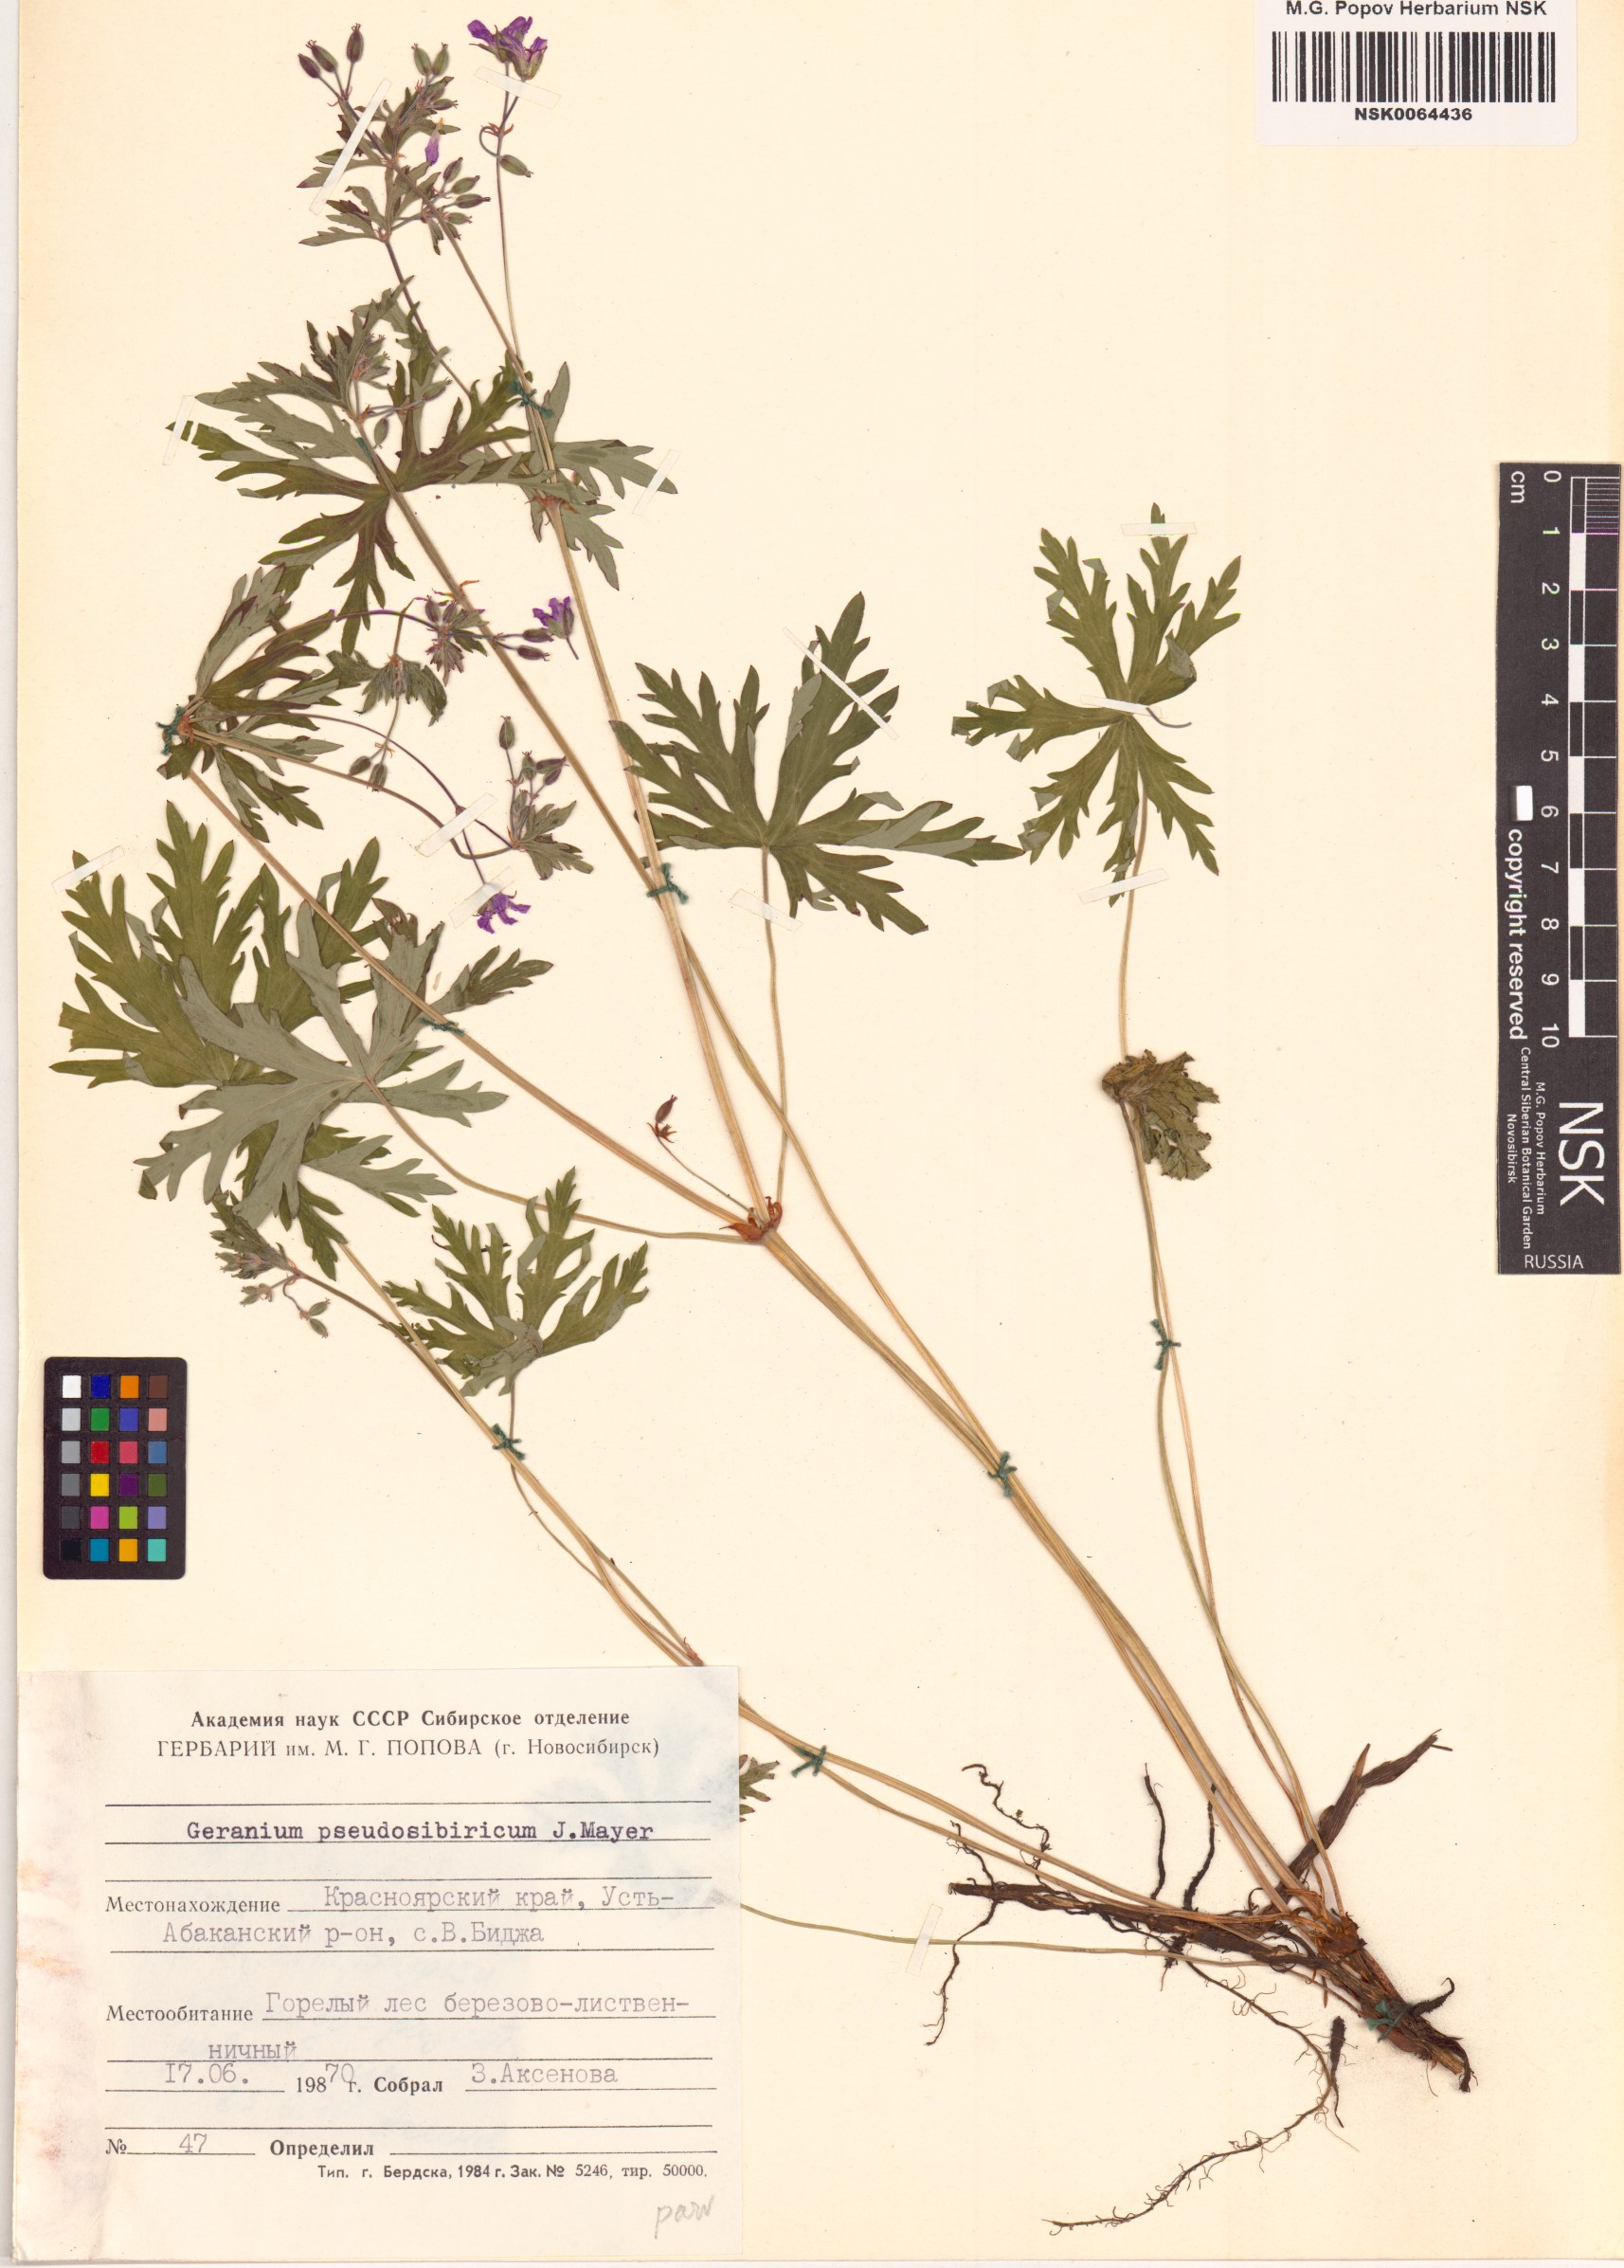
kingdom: Plantae
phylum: Tracheophyta
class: Magnoliopsida
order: Geraniales
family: Geraniaceae
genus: Geranium
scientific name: Geranium pseudosibiricum
